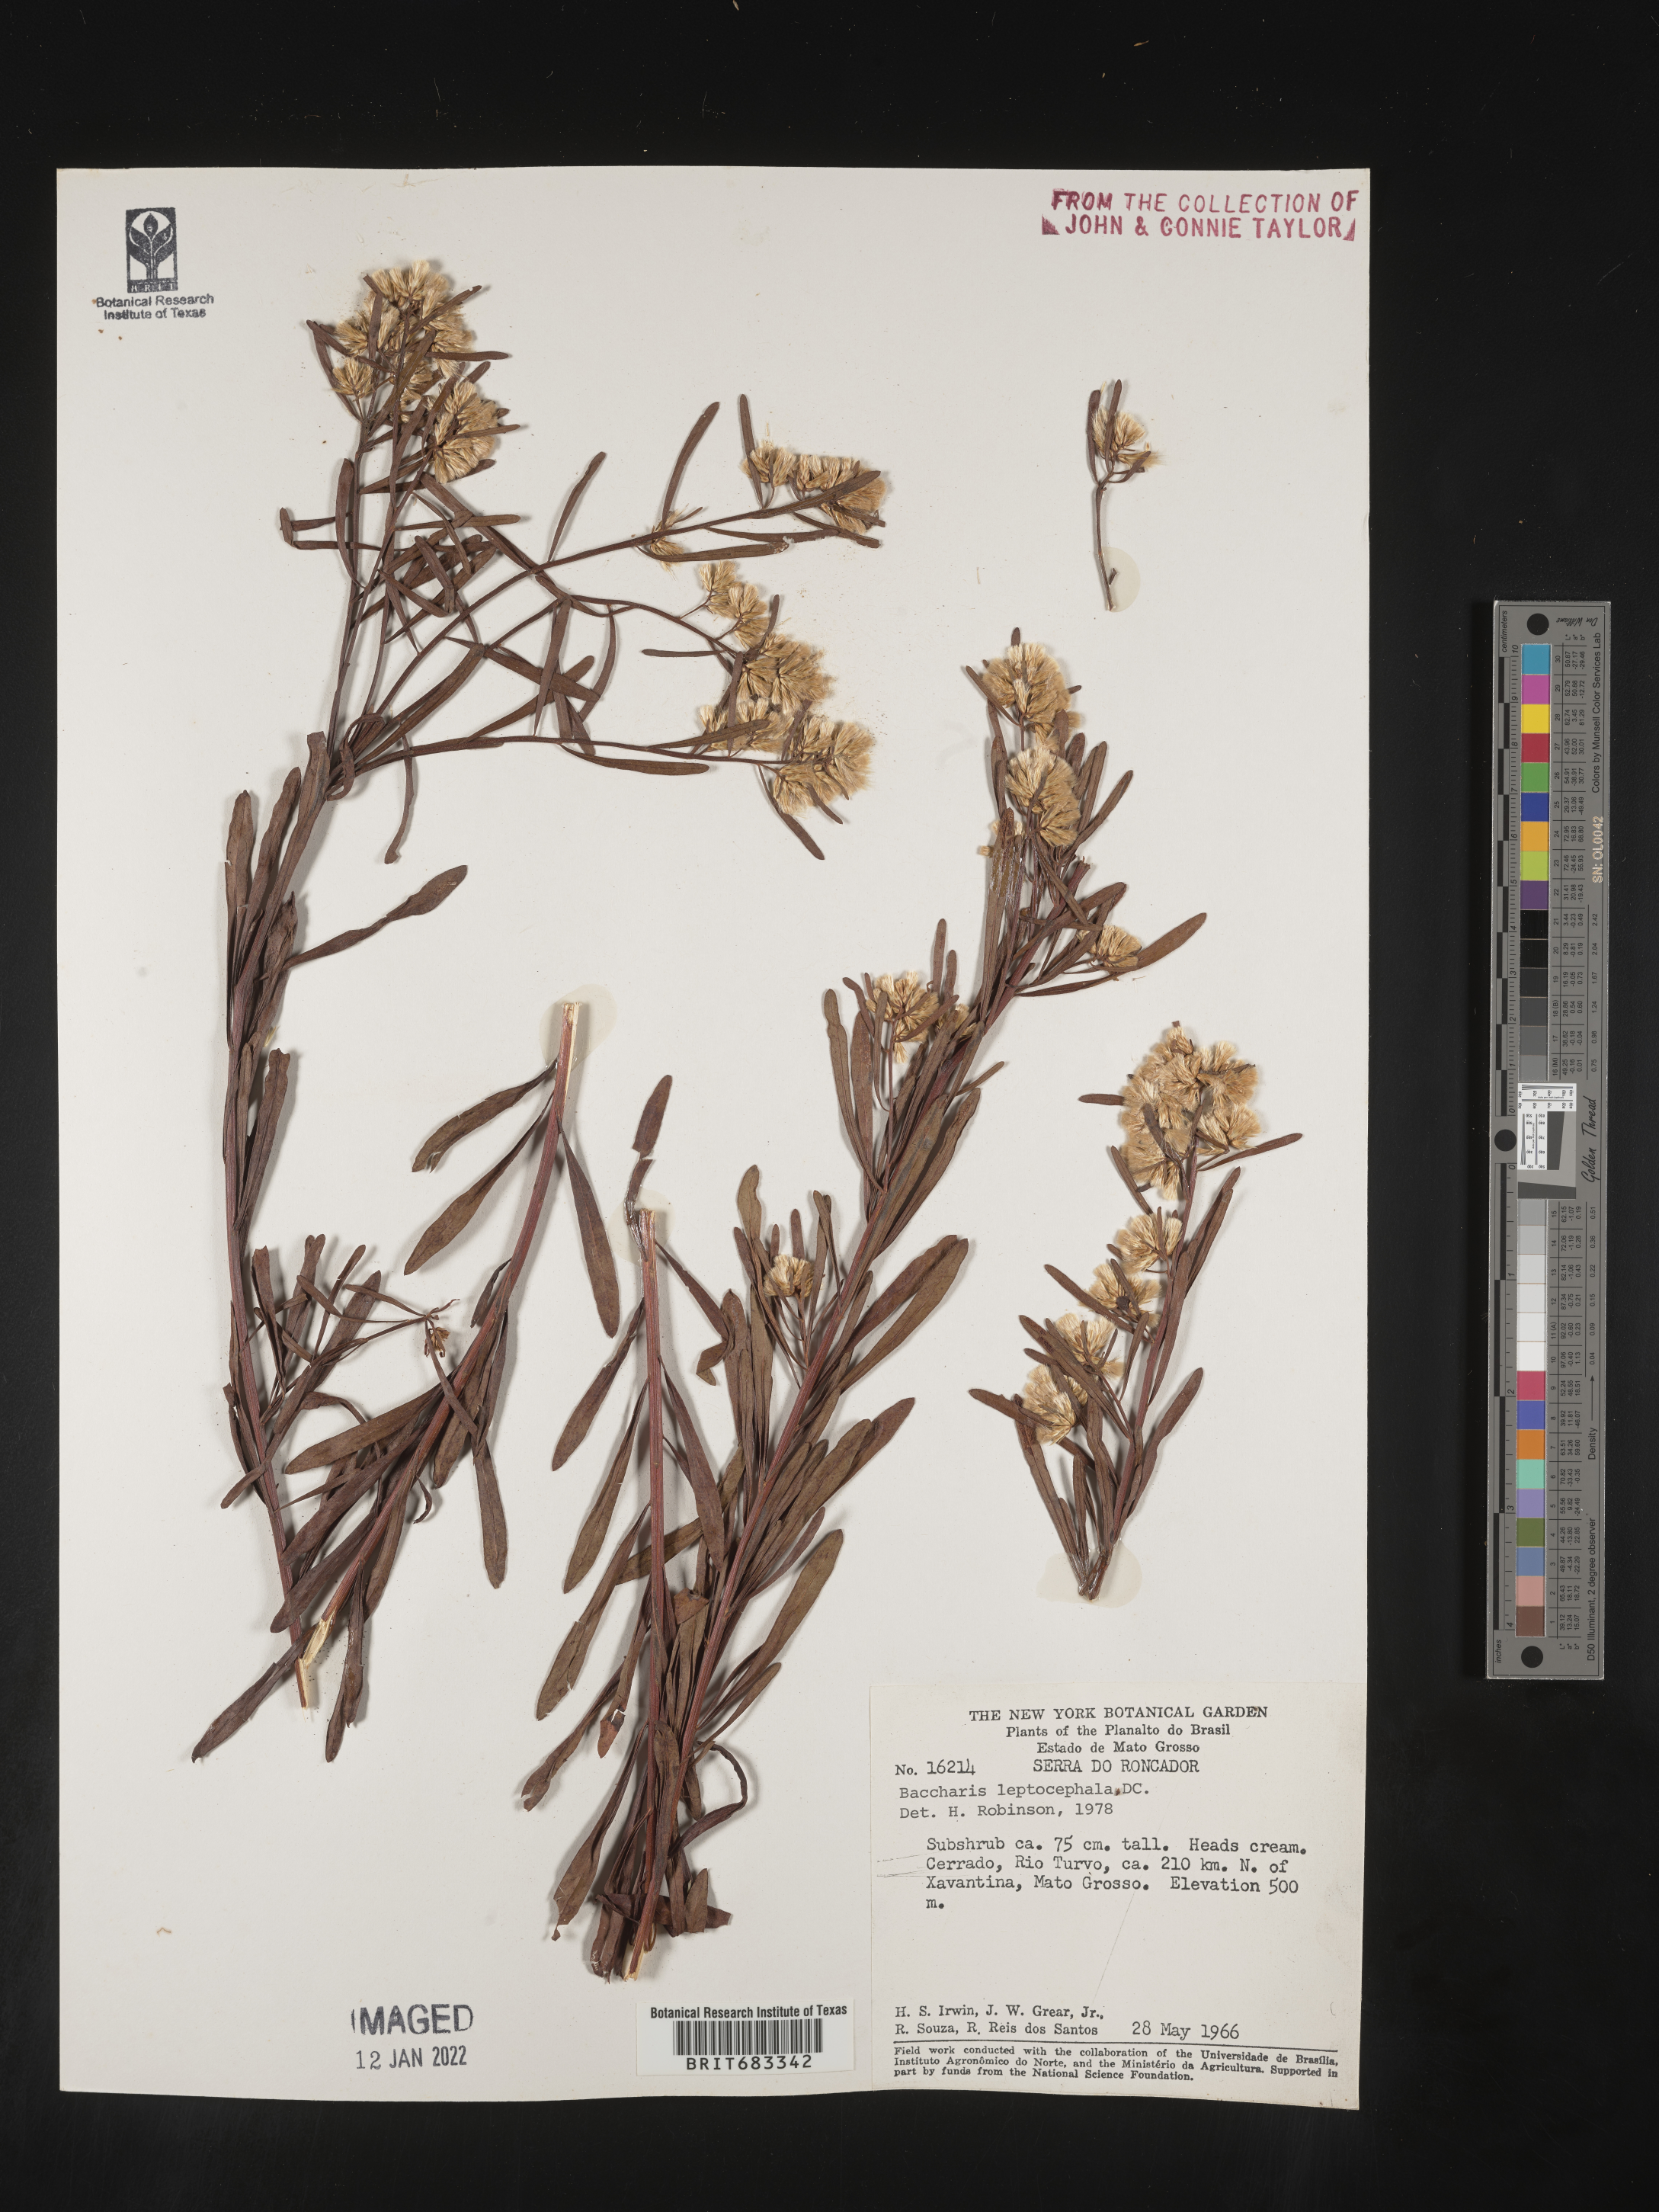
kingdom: Plantae
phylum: Tracheophyta
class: Magnoliopsida
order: Asterales
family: Asteraceae
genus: Baccharis
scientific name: Baccharis
